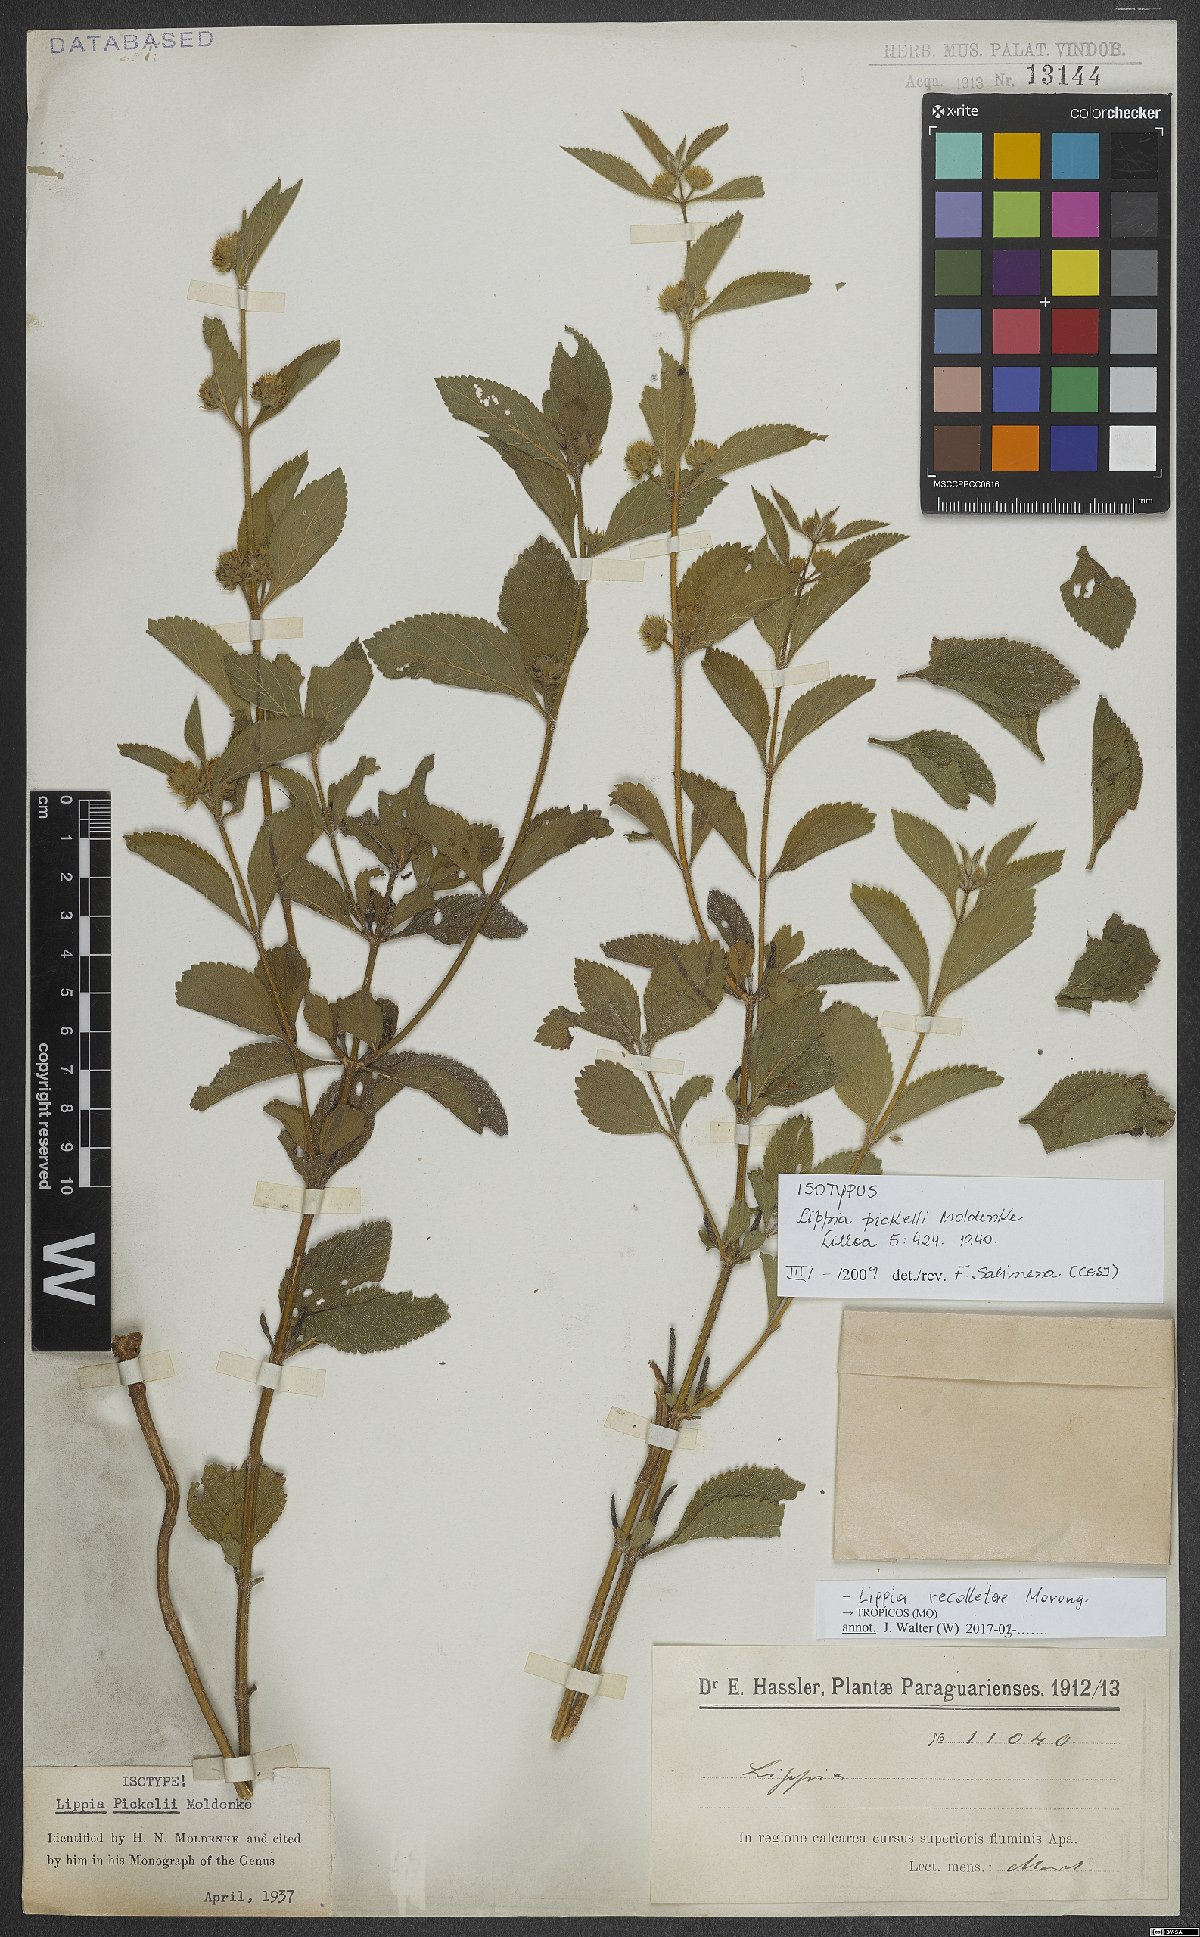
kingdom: Plantae
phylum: Tracheophyta
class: Magnoliopsida
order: Lamiales
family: Verbenaceae
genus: Lippia
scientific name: Lippia recolletae
